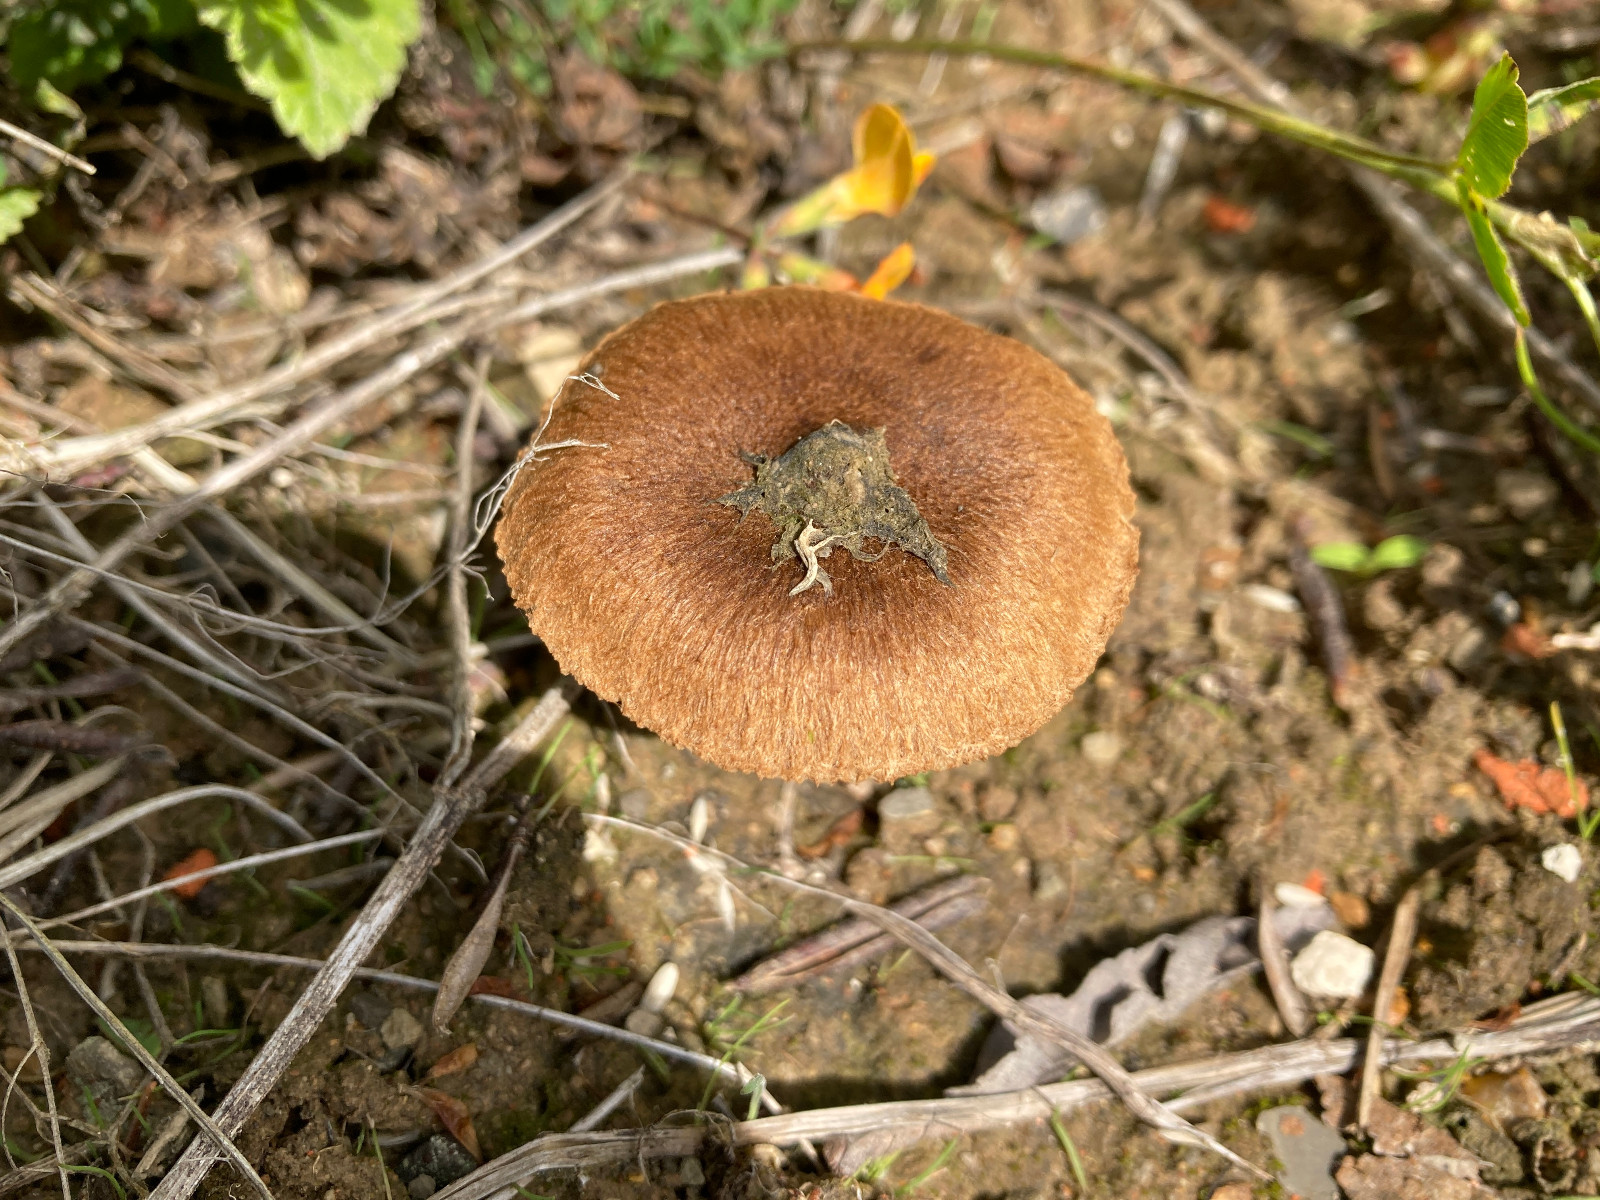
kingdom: Fungi
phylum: Basidiomycota
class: Agaricomycetes
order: Agaricales
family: Inocybaceae
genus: Inocybe
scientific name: Inocybe
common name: trævlhat
